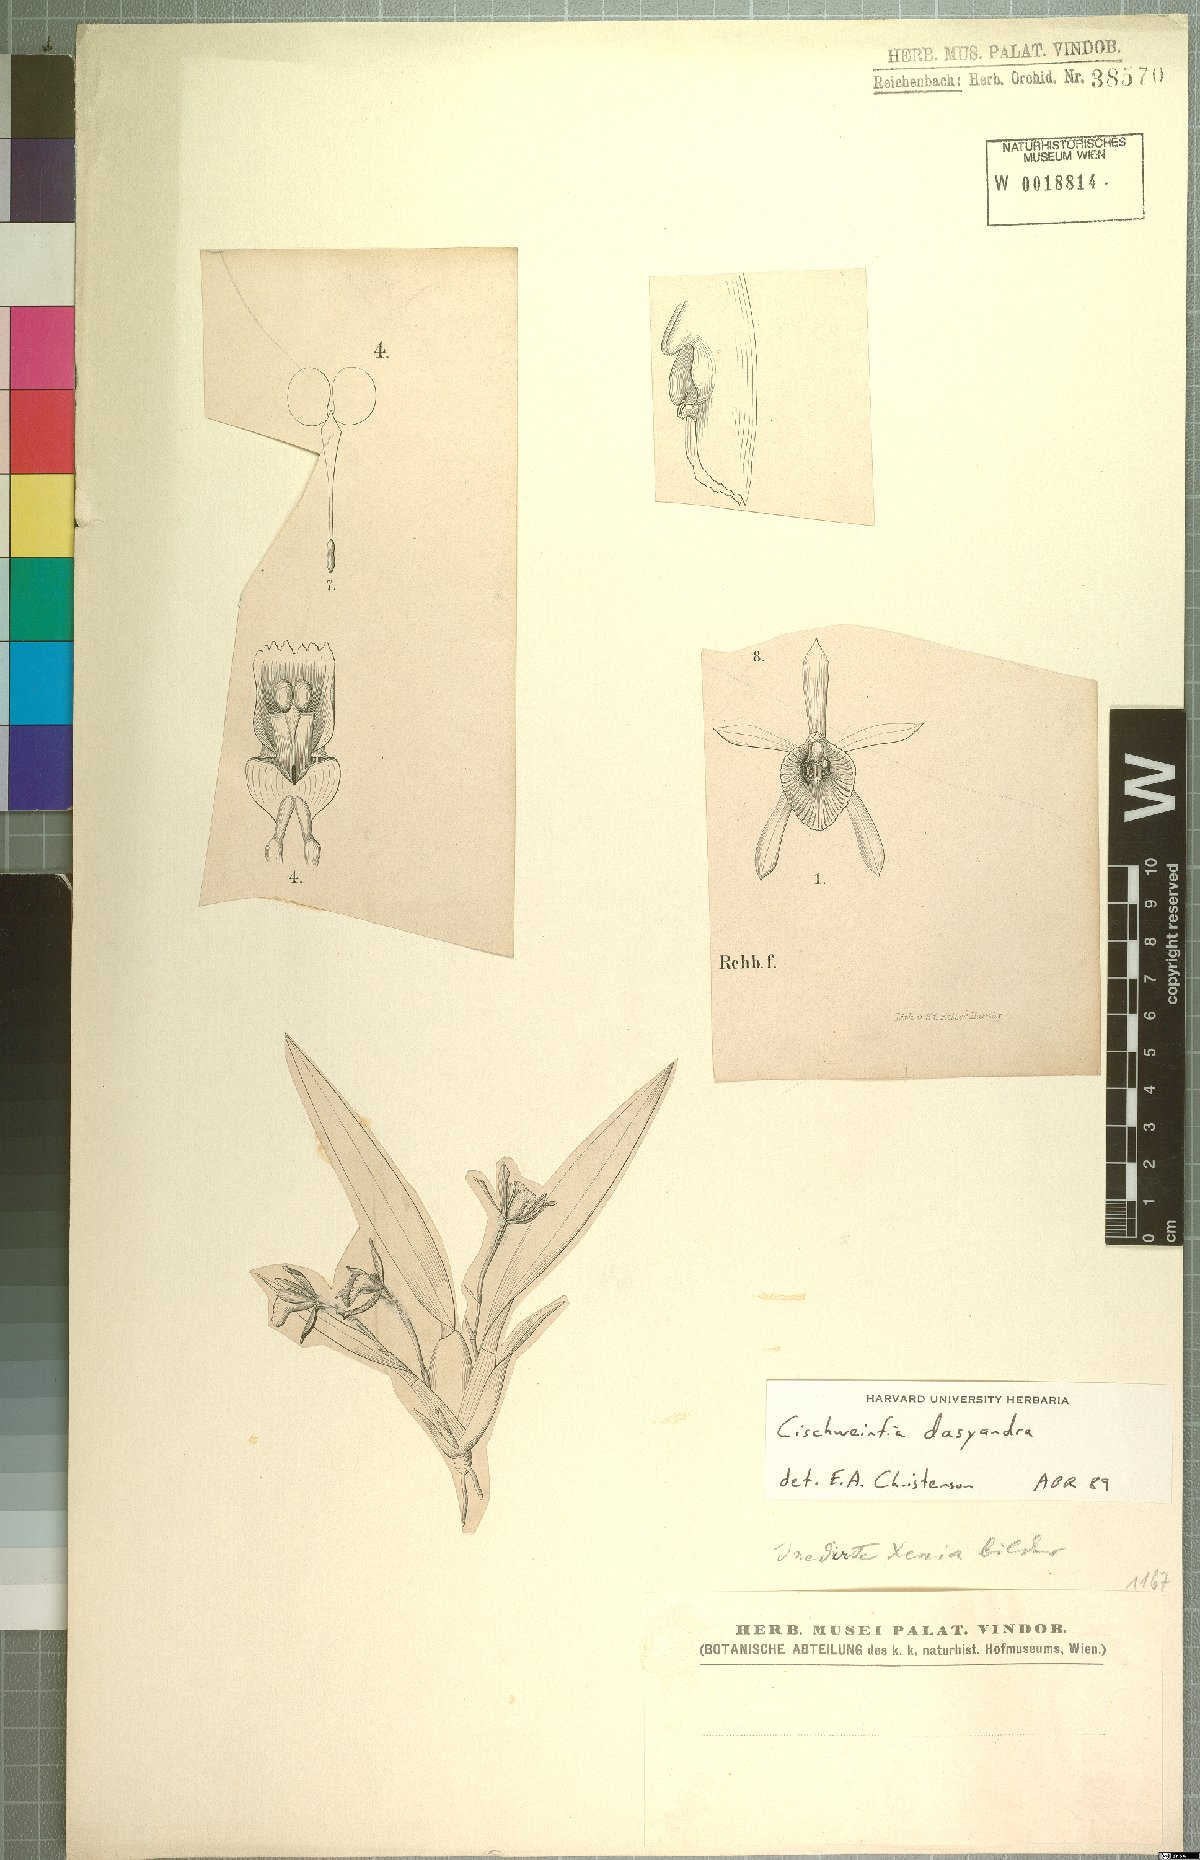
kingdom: Plantae
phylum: Tracheophyta
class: Liliopsida
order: Asparagales
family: Orchidaceae
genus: Cischweinfia
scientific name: Cischweinfia dasyandra
